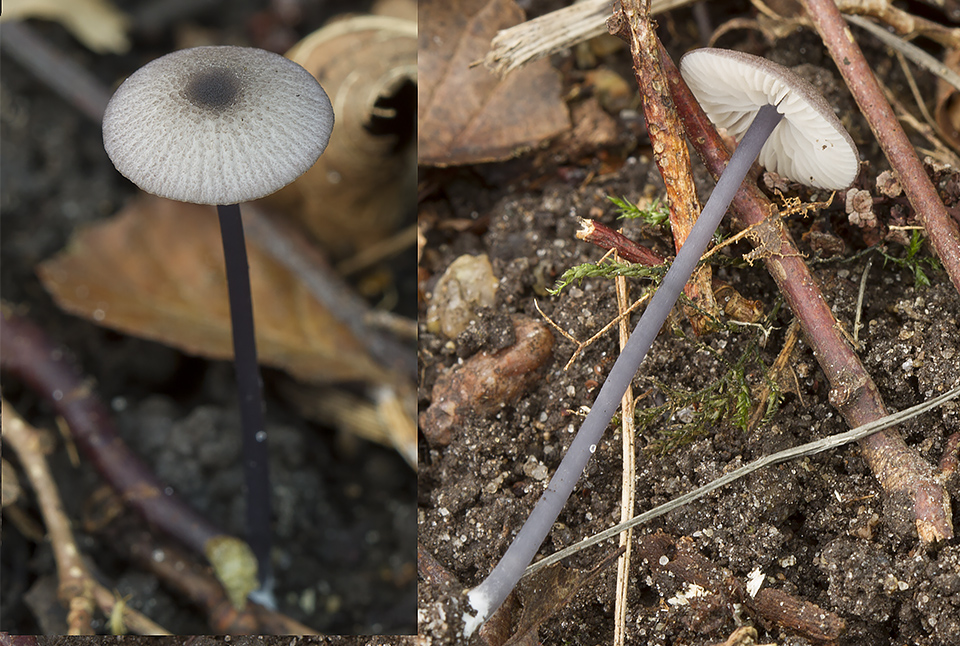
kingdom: Fungi
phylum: Basidiomycota
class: Agaricomycetes
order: Agaricales
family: Entolomataceae
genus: Entoloma
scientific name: Entoloma poliopus
